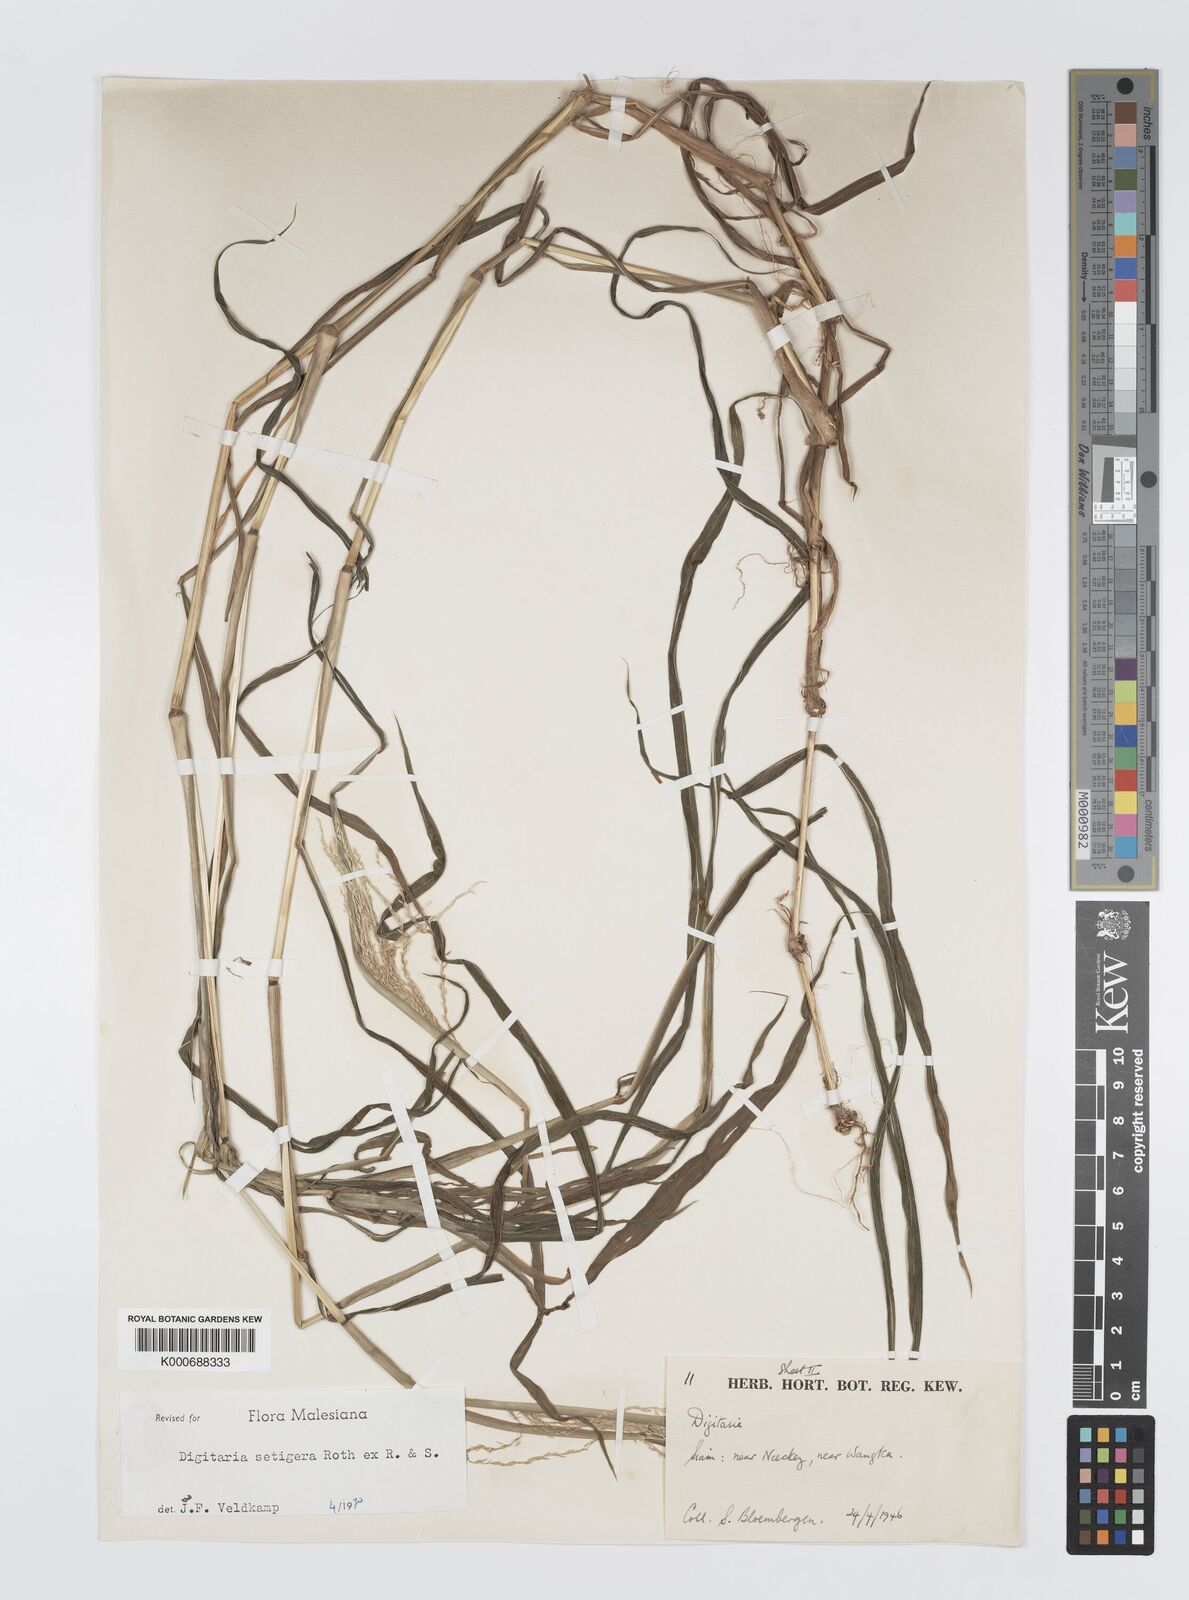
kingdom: Plantae
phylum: Tracheophyta
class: Liliopsida
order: Poales
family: Poaceae
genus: Digitaria
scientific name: Digitaria
